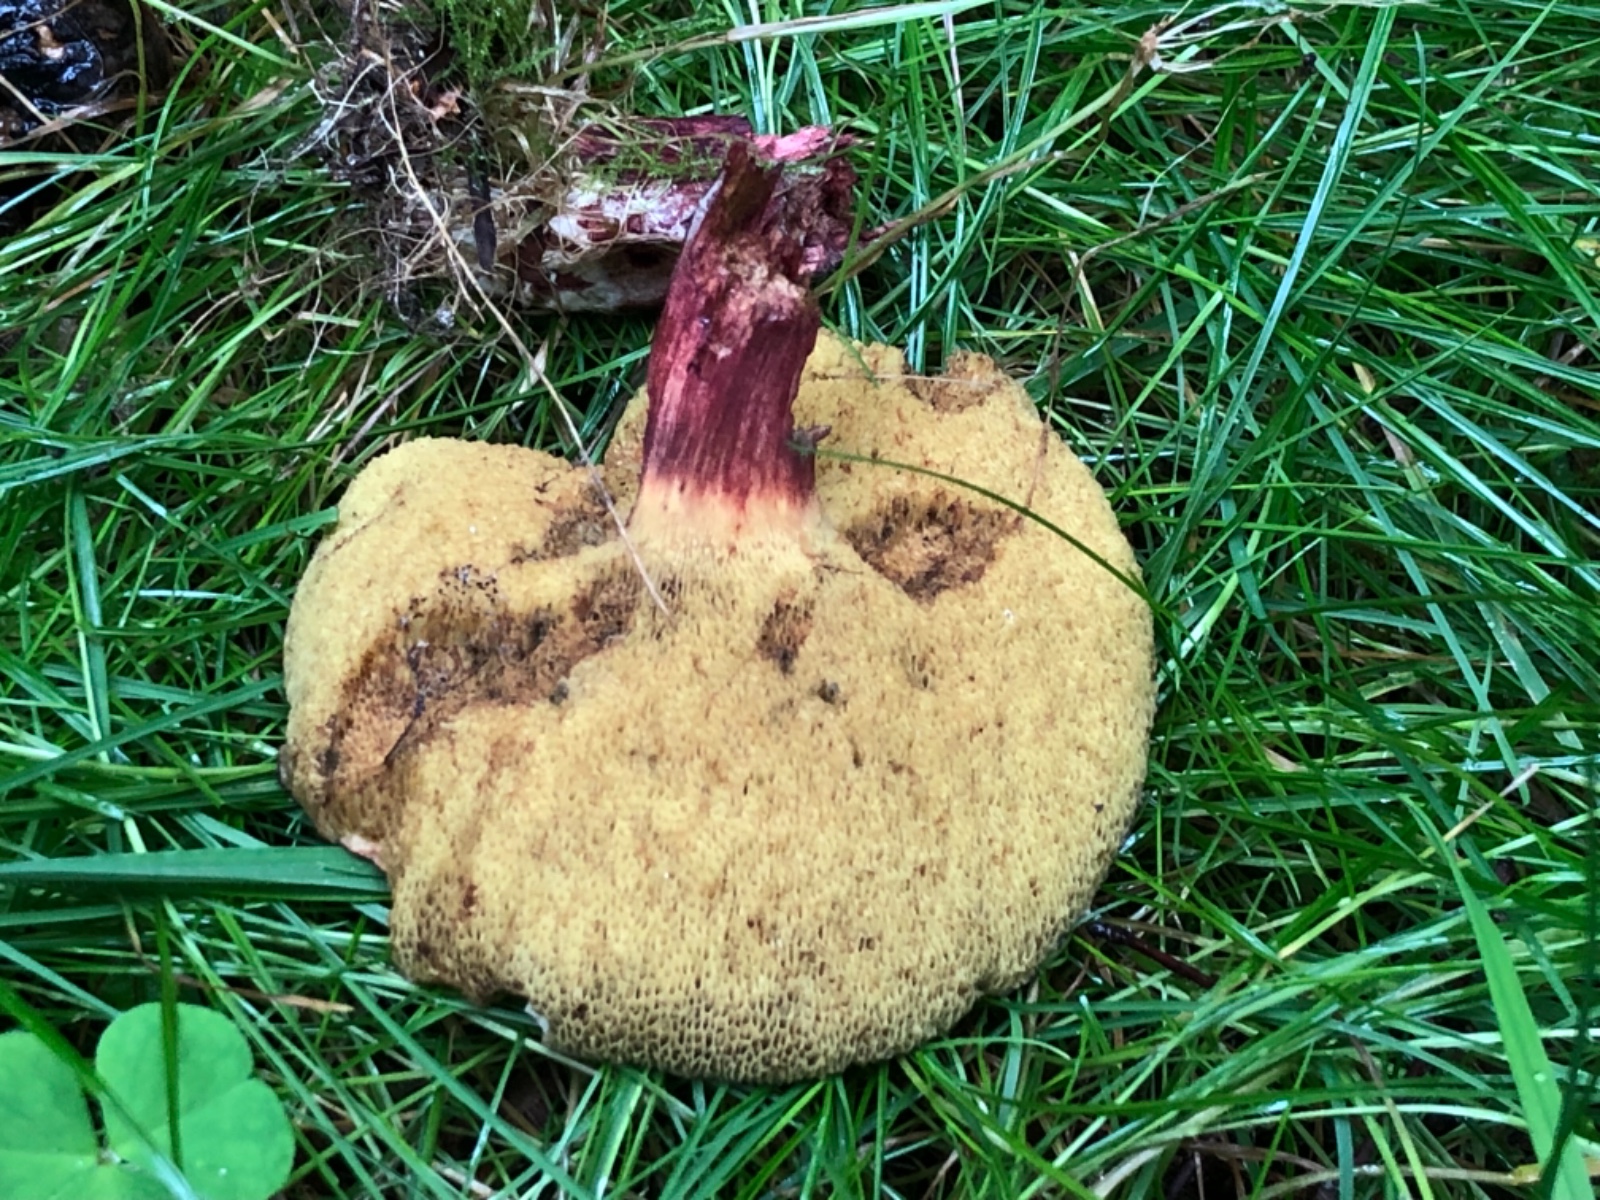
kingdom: Fungi
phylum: Basidiomycota
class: Agaricomycetes
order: Boletales
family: Boletaceae
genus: Xerocomellus
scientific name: Xerocomellus chrysenteron
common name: rødsprukken rørhat
